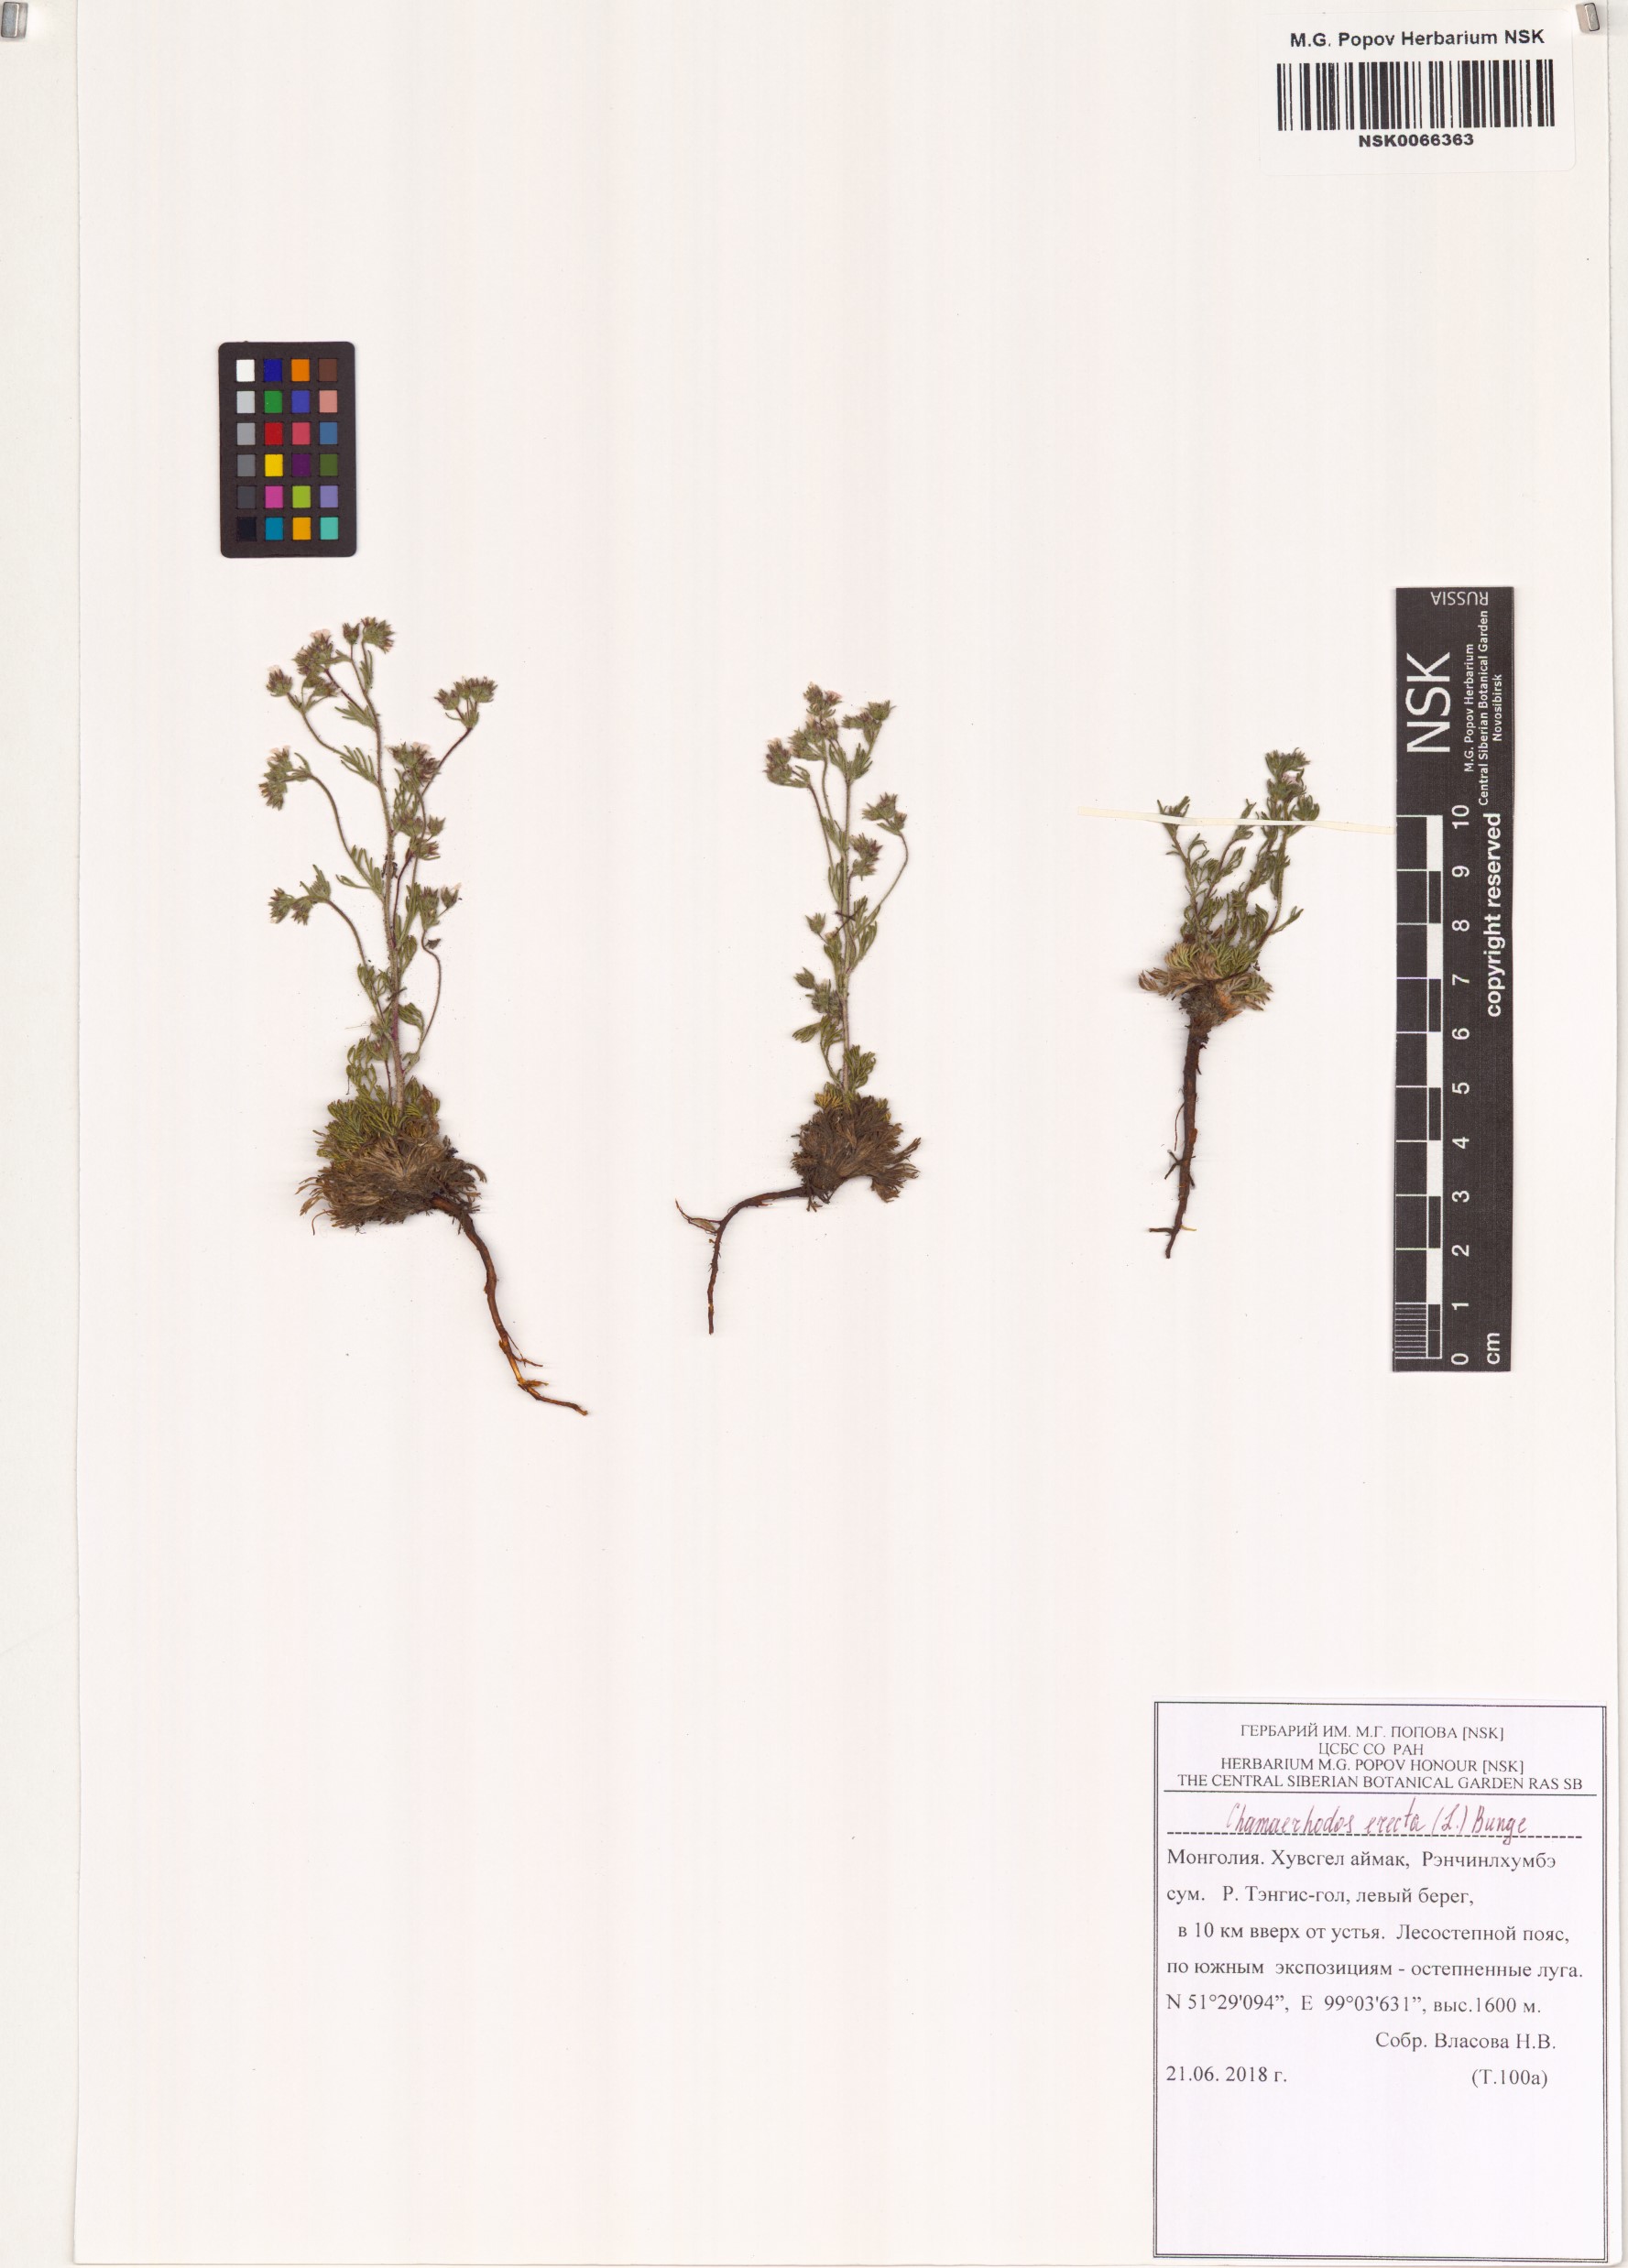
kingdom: Plantae
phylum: Tracheophyta
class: Magnoliopsida
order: Rosales
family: Rosaceae
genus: Chamaerhodos
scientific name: Chamaerhodos erecta
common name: American chamaerhodos
